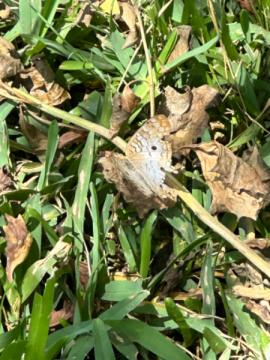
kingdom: Animalia
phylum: Arthropoda
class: Insecta
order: Lepidoptera
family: Nymphalidae
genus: Anartia
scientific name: Anartia jatrophae
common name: White Peacock
